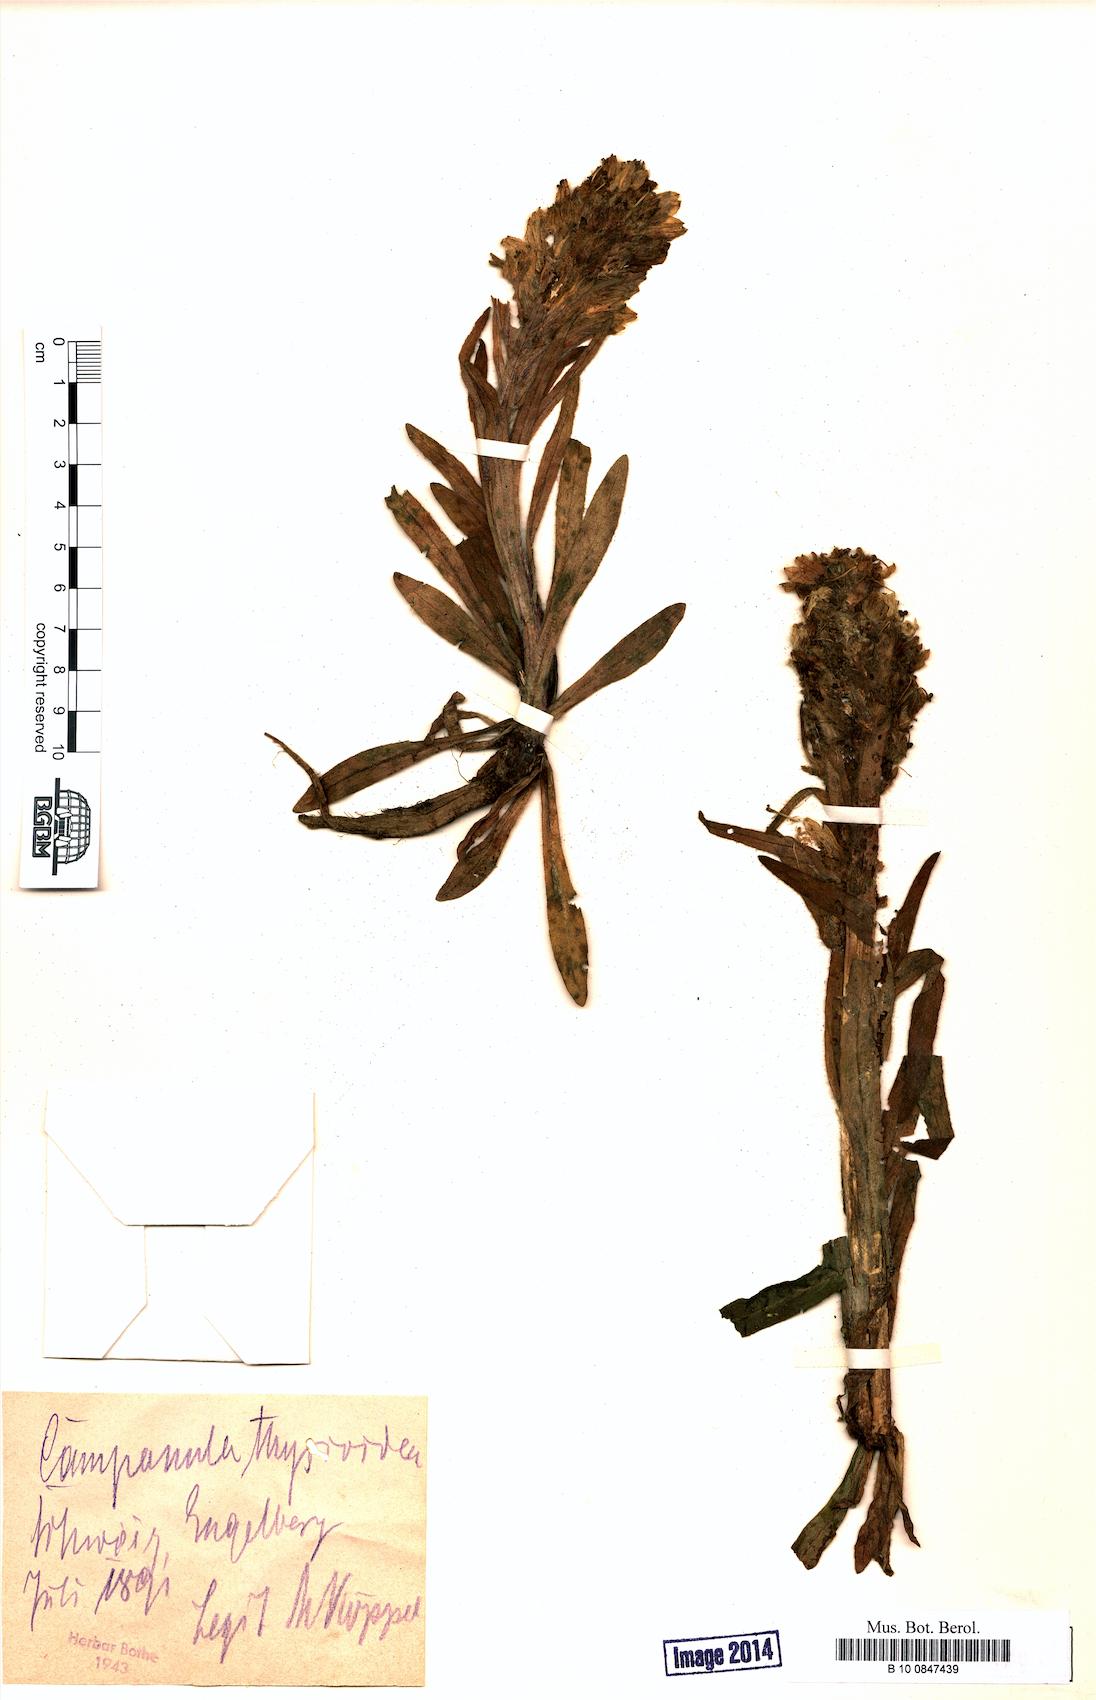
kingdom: Plantae
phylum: Tracheophyta
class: Magnoliopsida
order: Asterales
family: Campanulaceae
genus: Campanula
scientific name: Campanula thyrsoides
